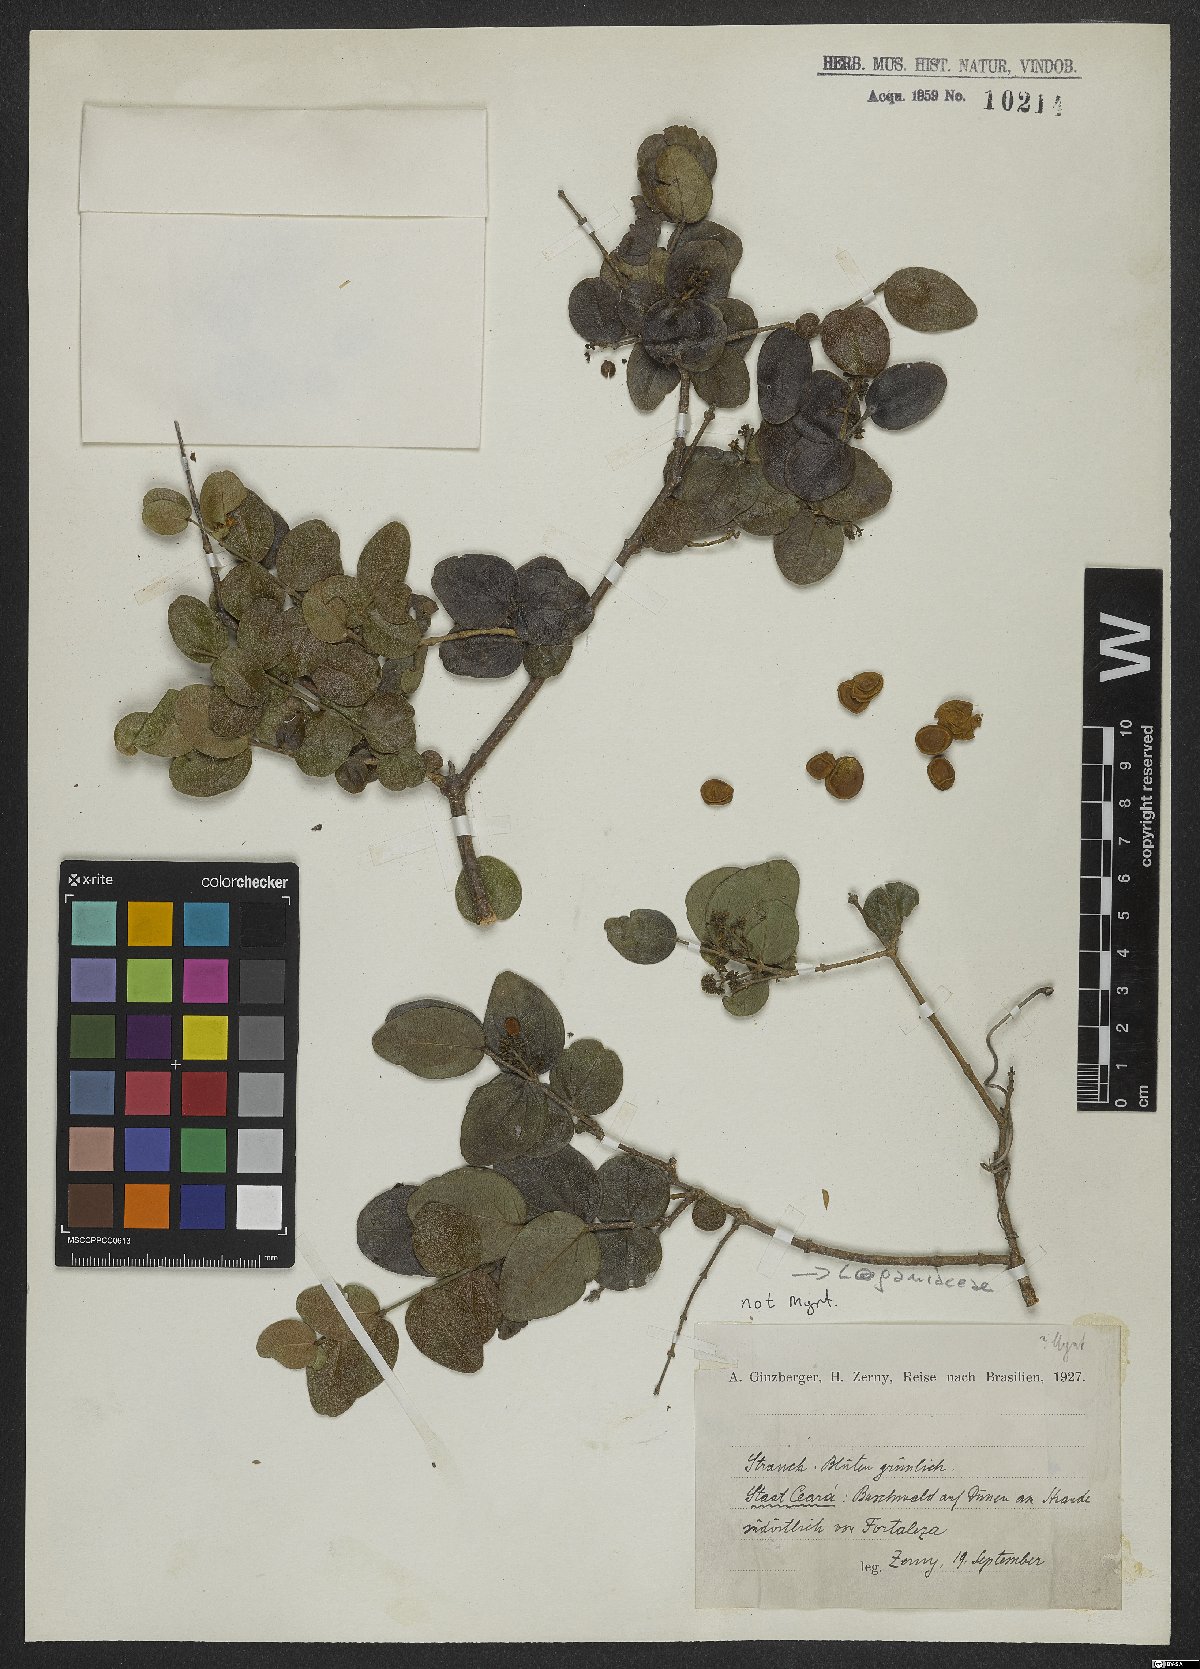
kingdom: Plantae
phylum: Tracheophyta
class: Magnoliopsida
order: Gentianales
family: Loganiaceae
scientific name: Loganiaceae
